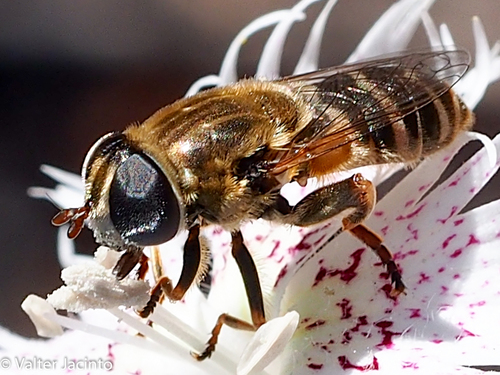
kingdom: Animalia
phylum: Arthropoda
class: Insecta
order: Diptera
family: Syrphidae
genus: Merodon
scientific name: Merodon
